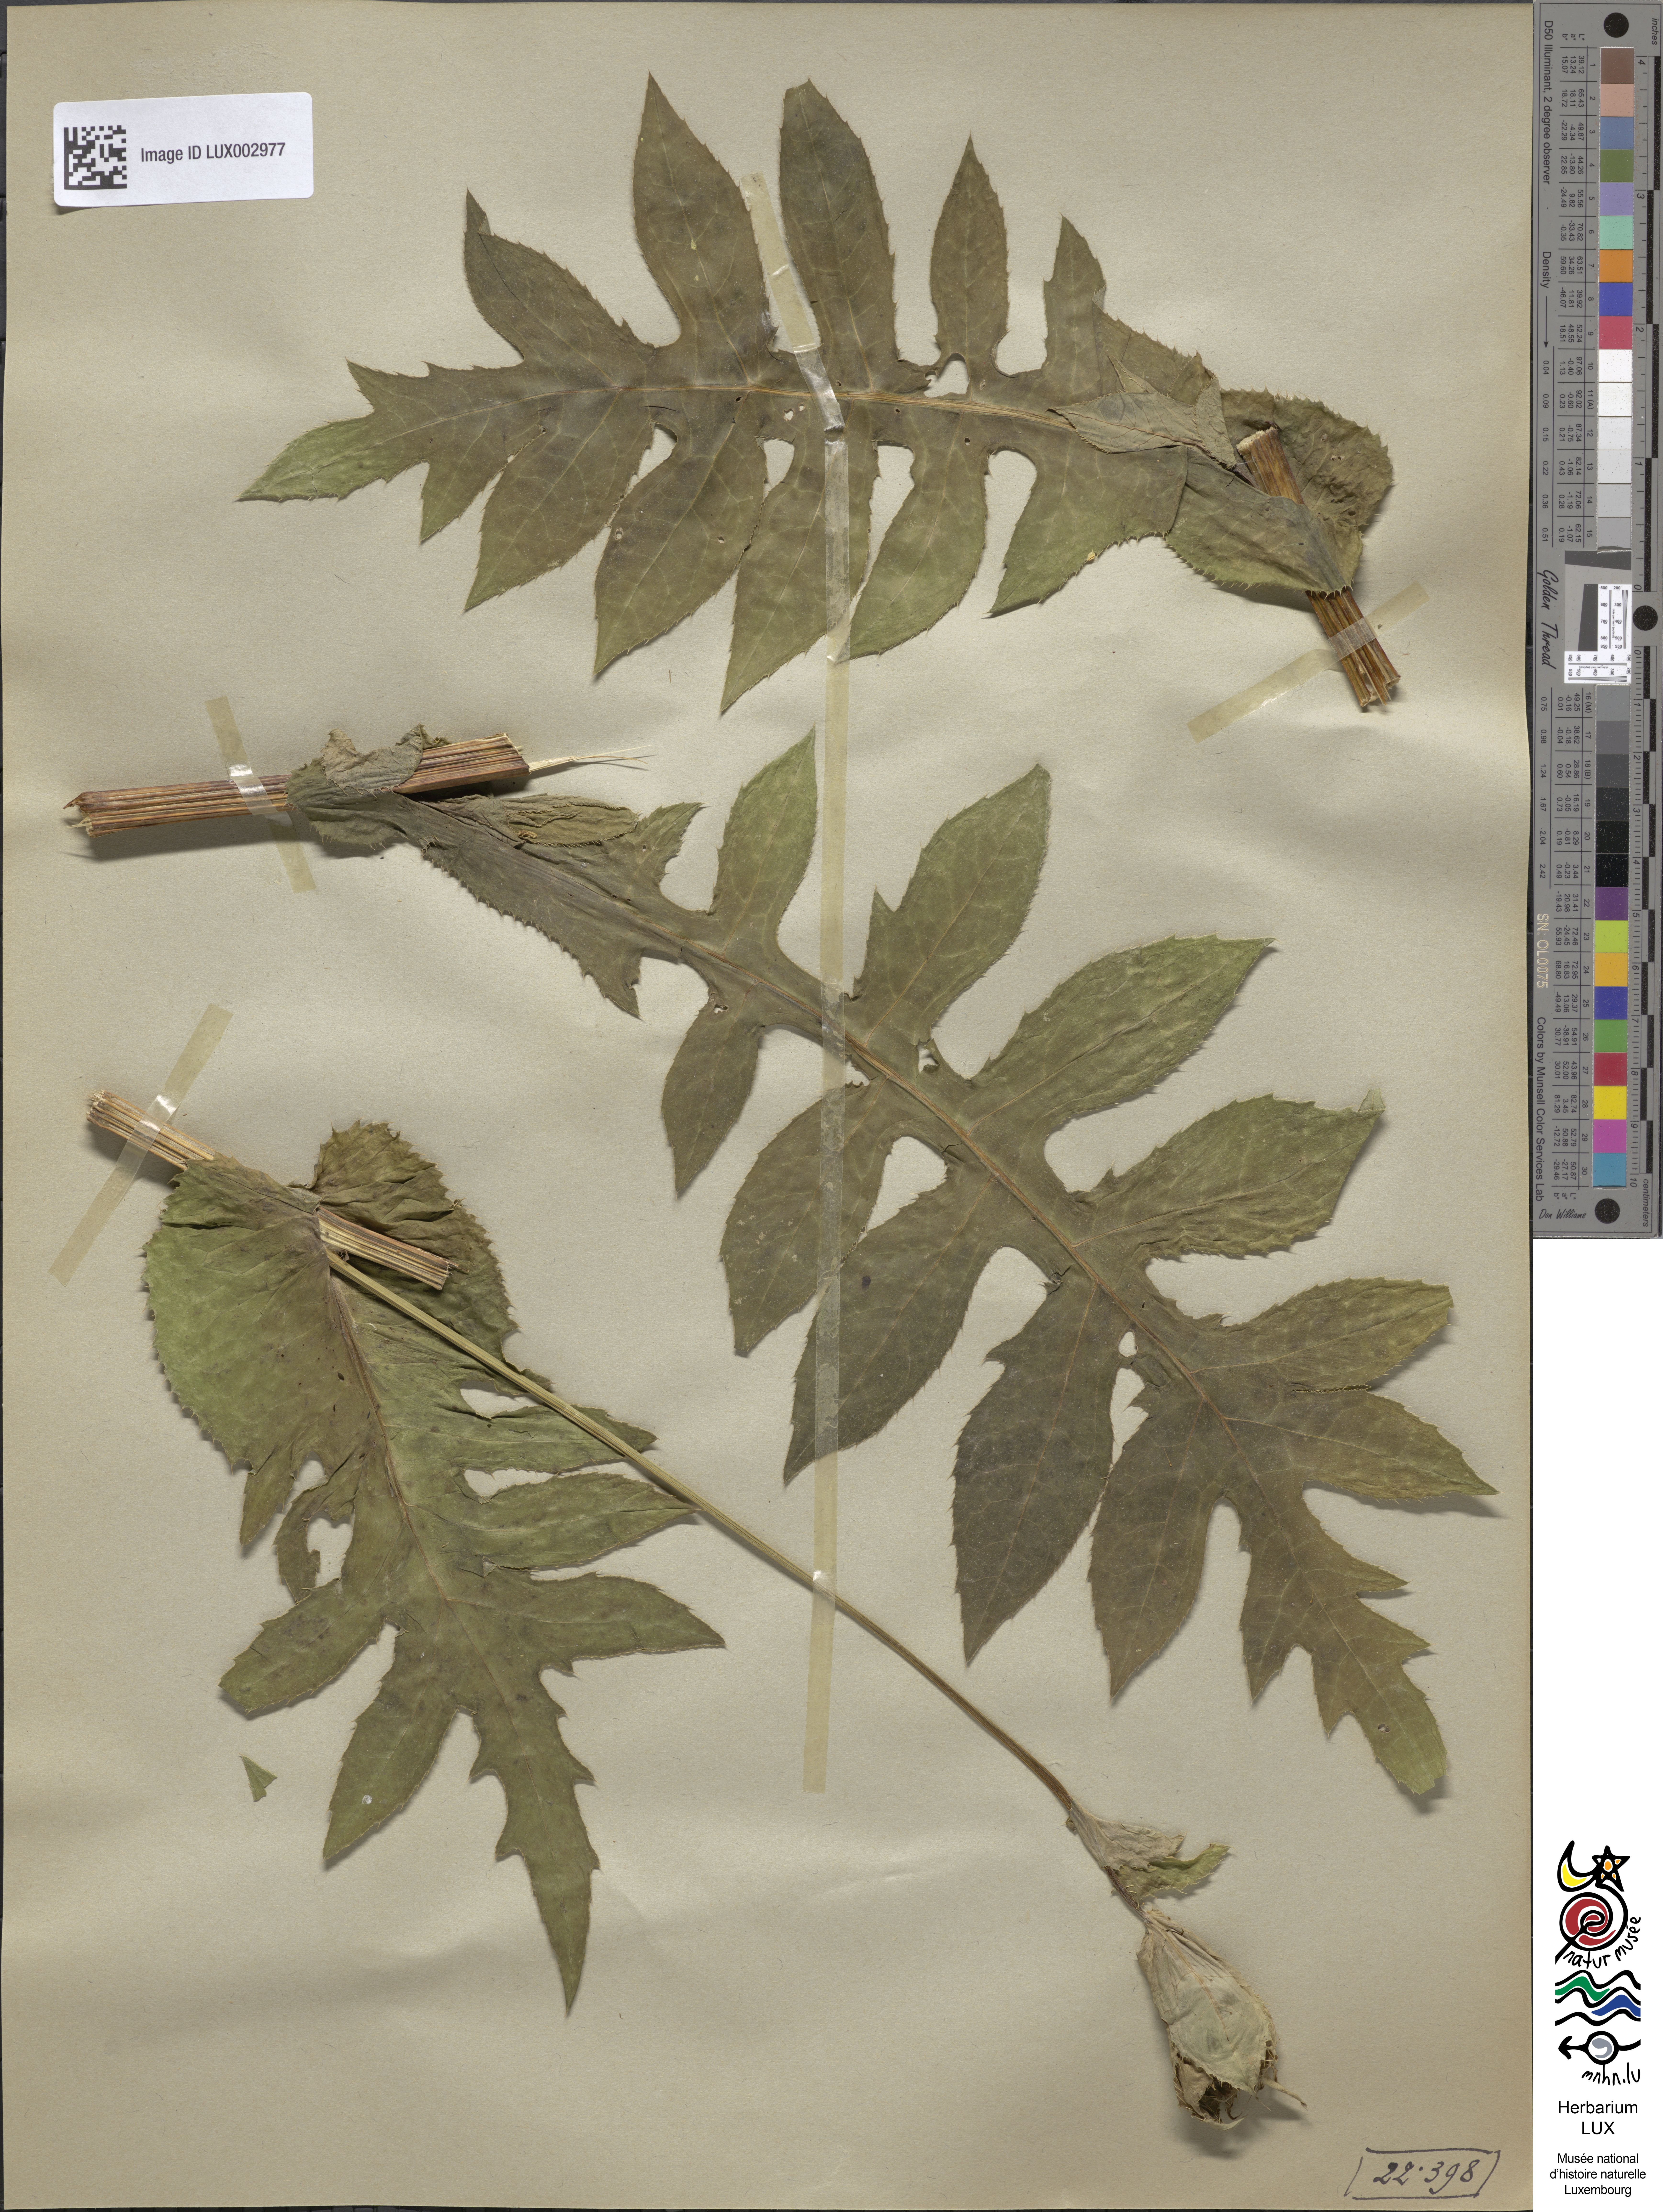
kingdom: Plantae
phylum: Tracheophyta
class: Magnoliopsida
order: Asterales
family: Asteraceae
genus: Cirsium
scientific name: Cirsium oleraceum
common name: Cabbage thistle
